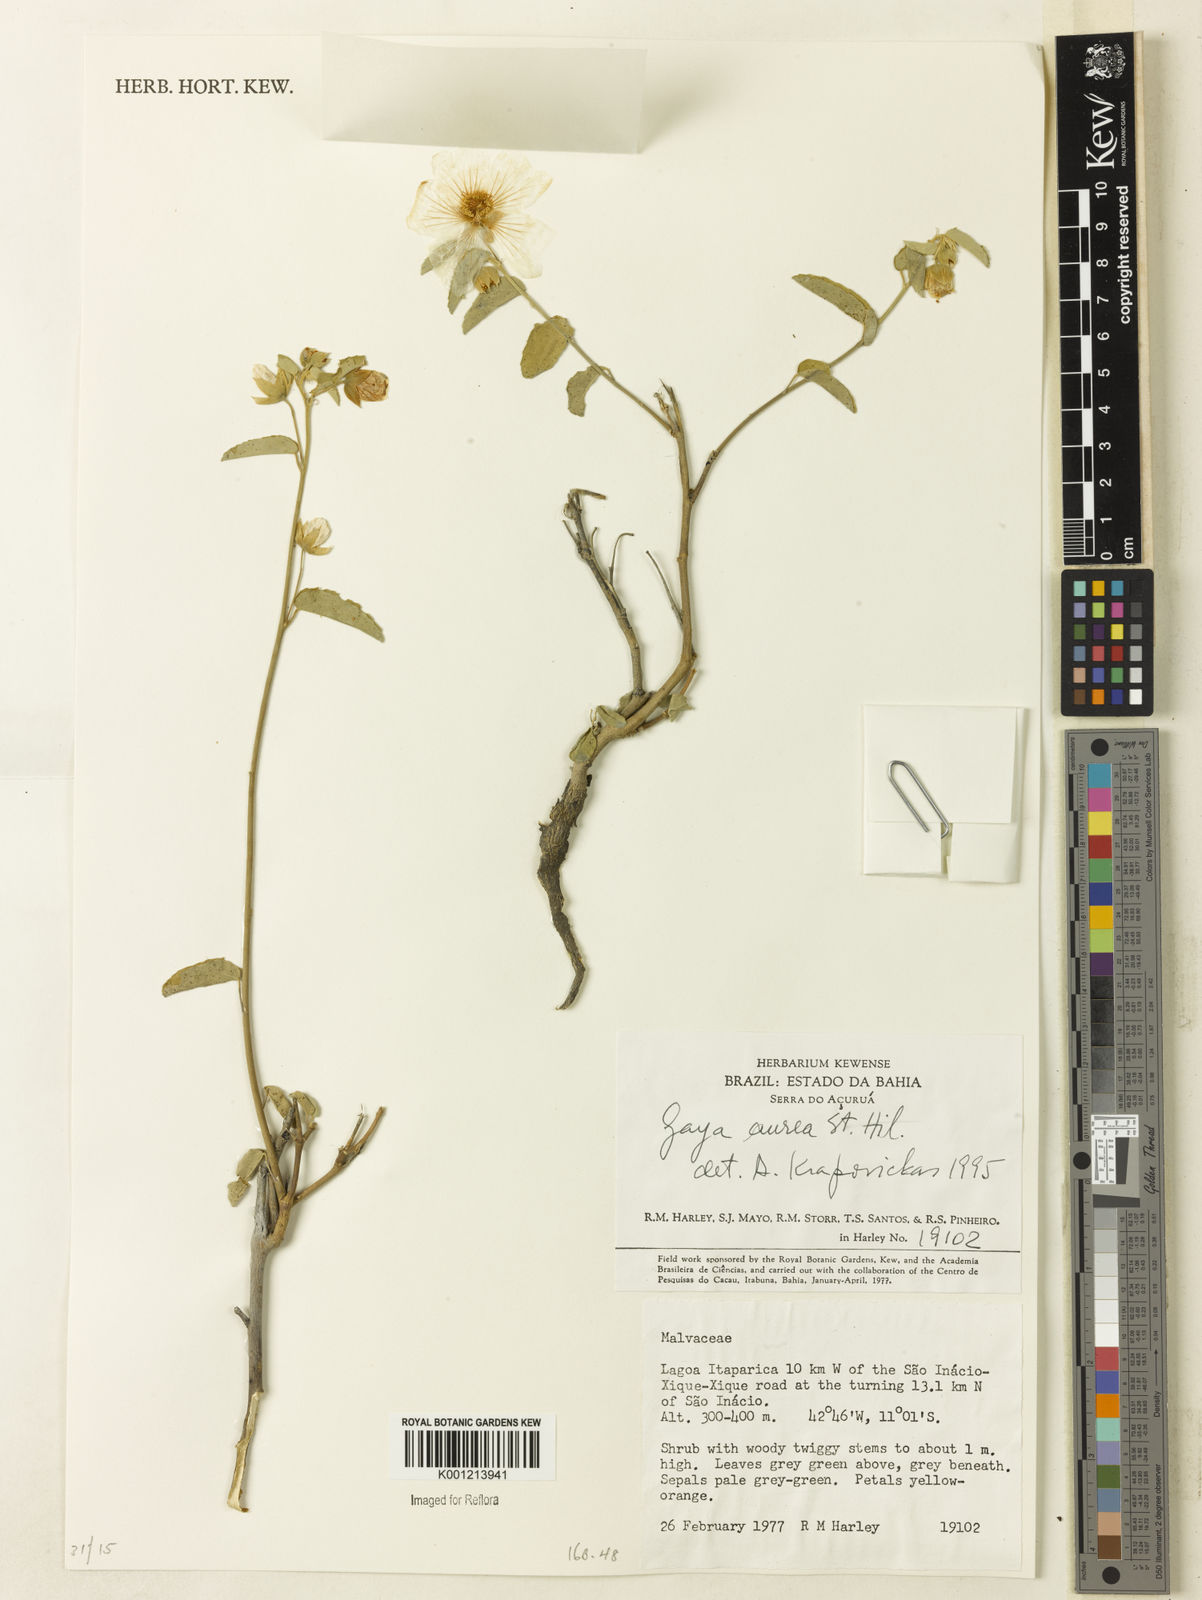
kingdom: Plantae
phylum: Tracheophyta
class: Magnoliopsida
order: Malvales
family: Malvaceae
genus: Gaya
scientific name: Gaya aurea
